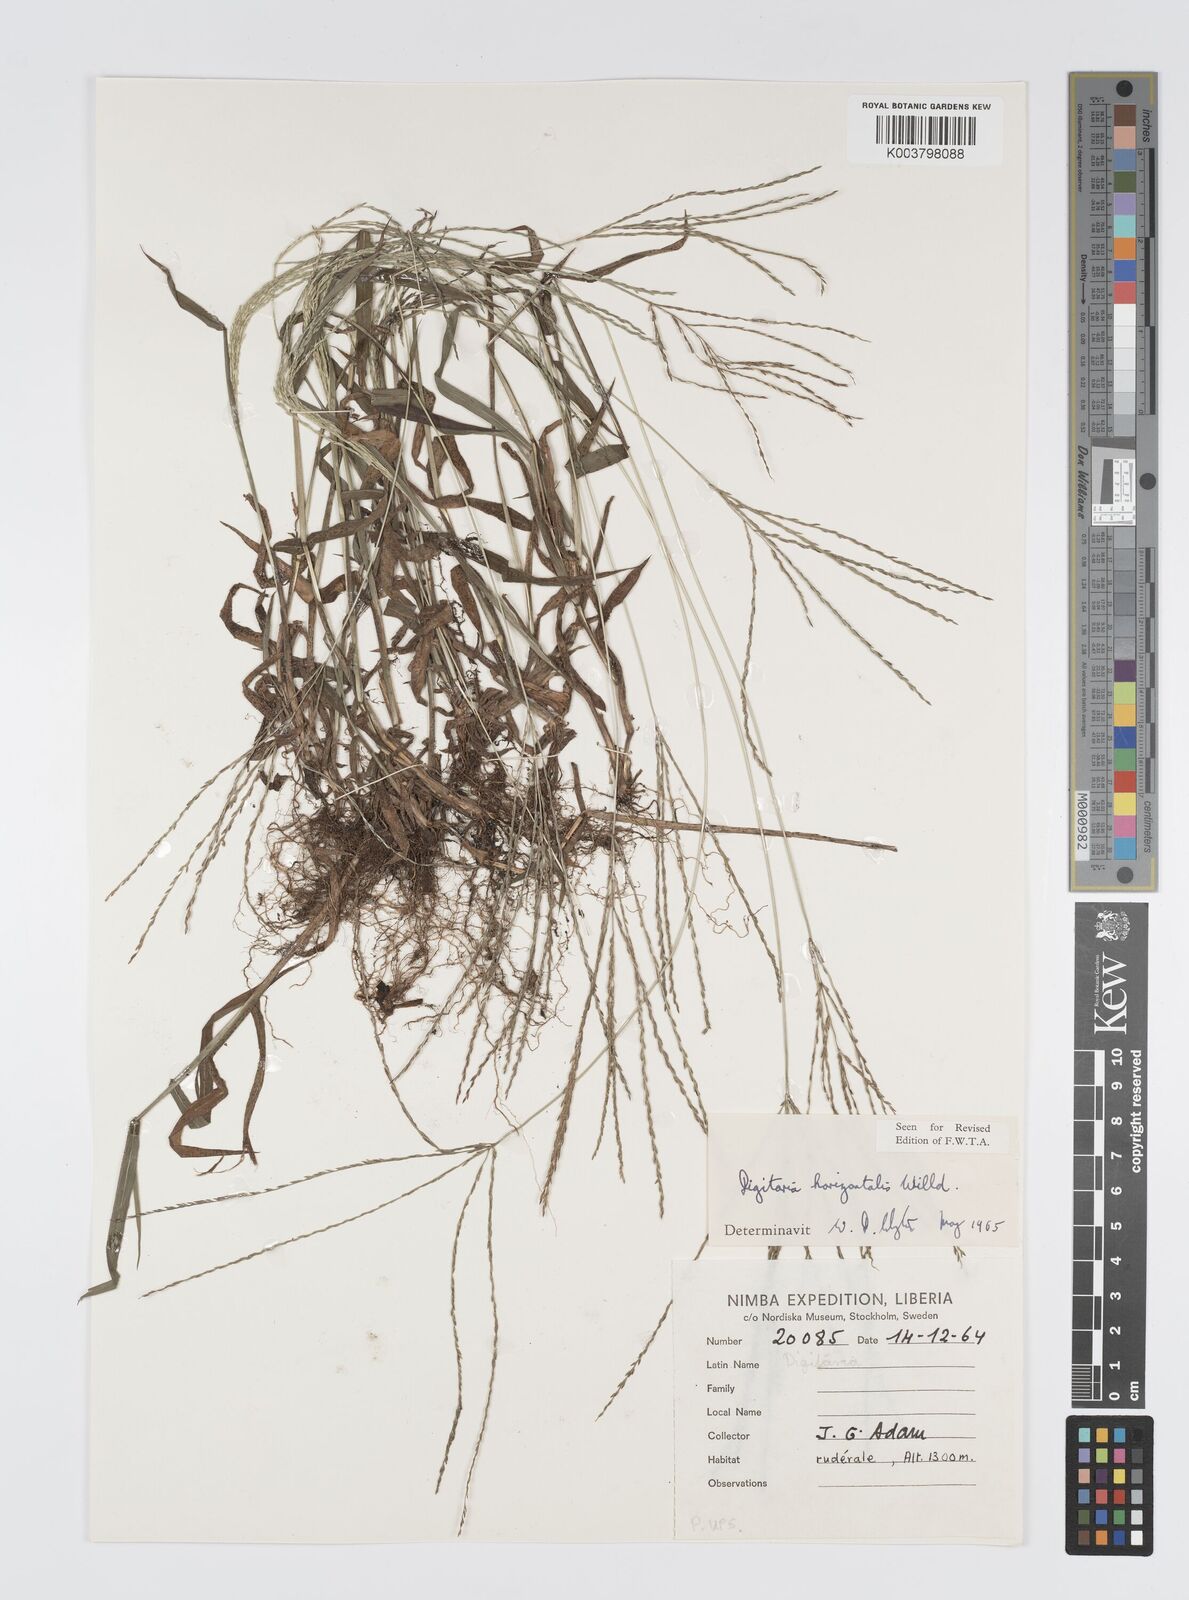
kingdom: Plantae
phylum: Tracheophyta
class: Liliopsida
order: Poales
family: Poaceae
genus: Digitaria
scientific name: Digitaria horizontalis
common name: Jamaican crabgrass
